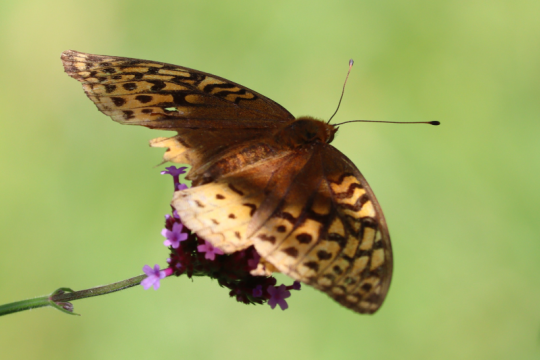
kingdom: Animalia
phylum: Arthropoda
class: Insecta
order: Lepidoptera
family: Nymphalidae
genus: Speyeria
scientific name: Speyeria cybele
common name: Great Spangled Fritillary
